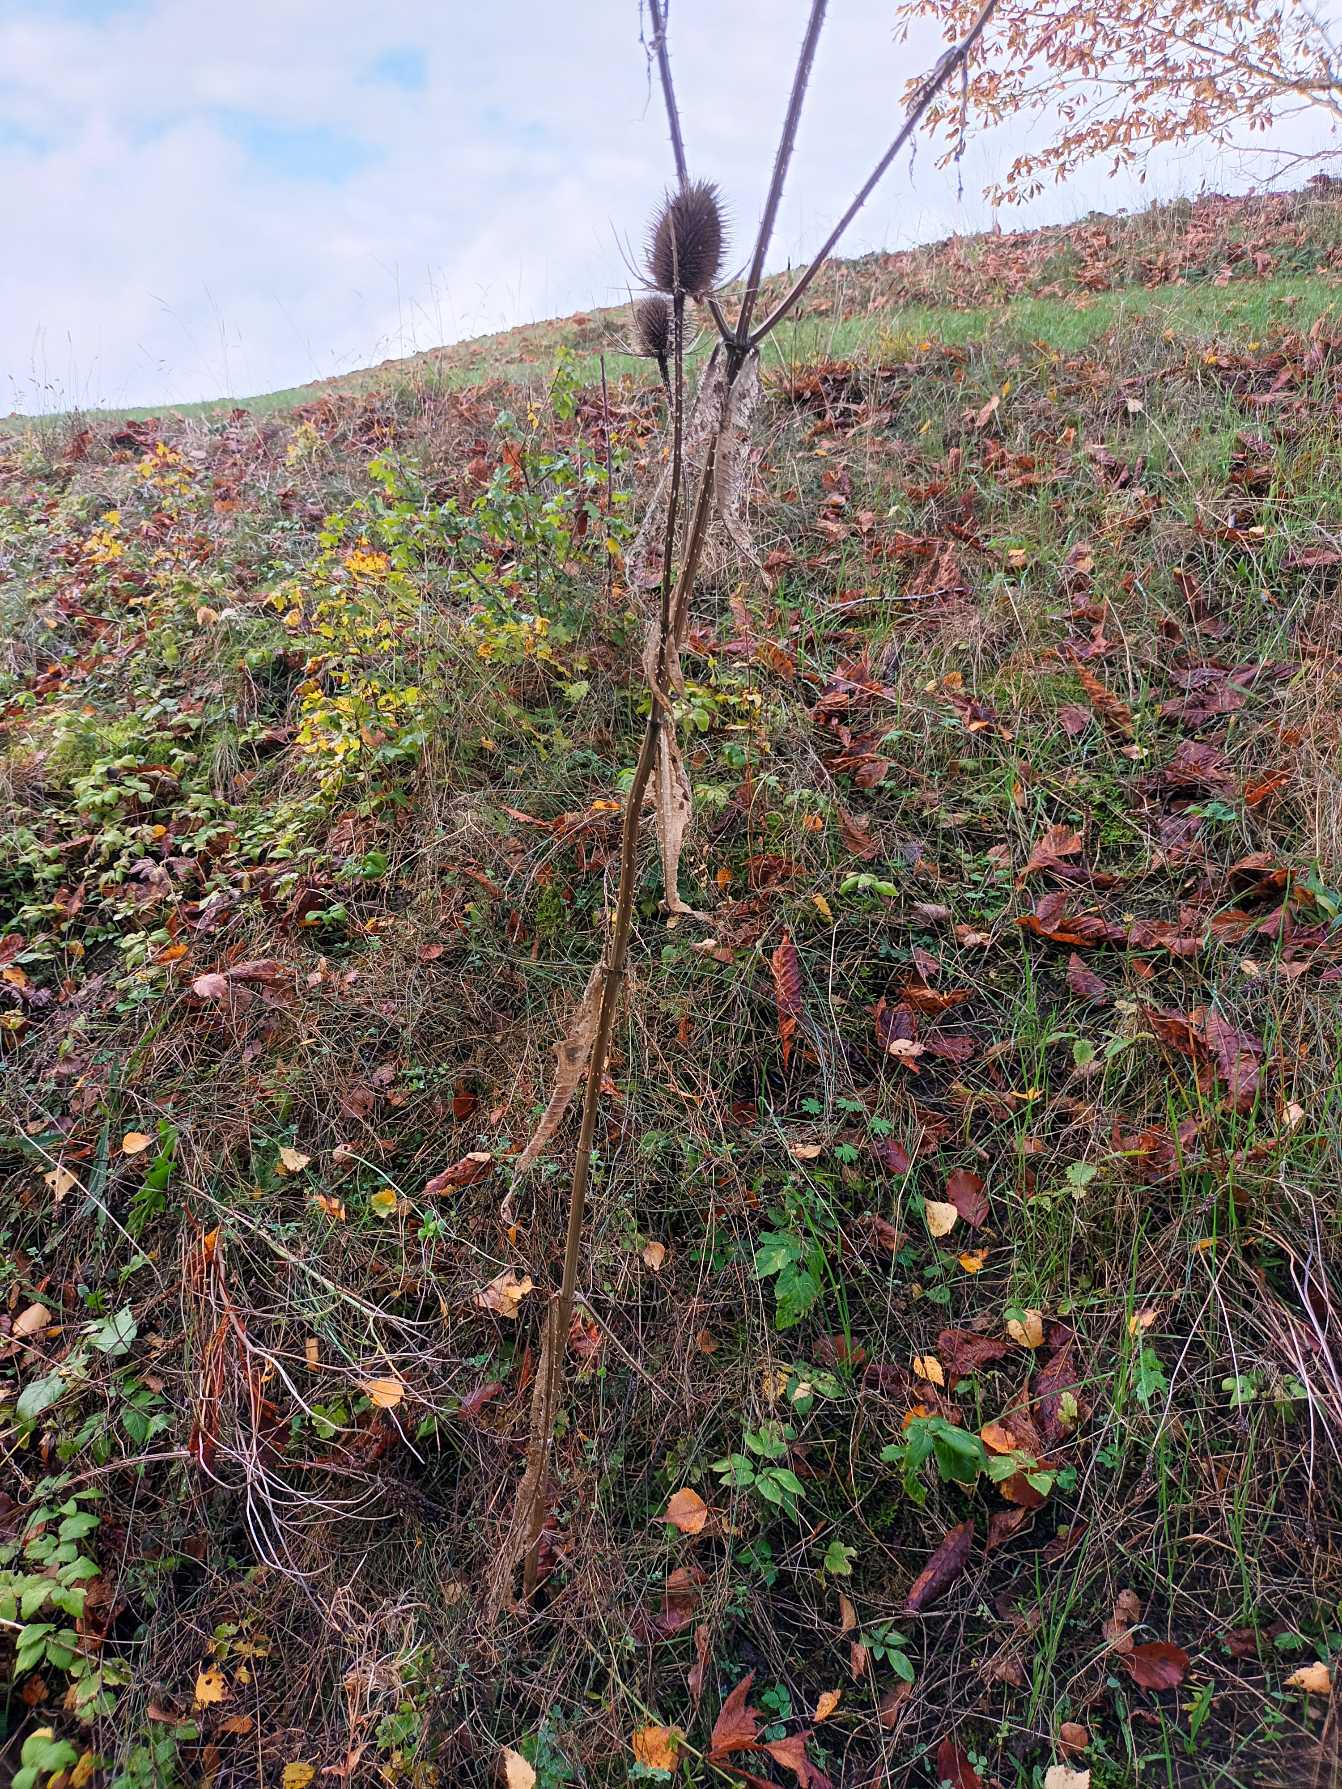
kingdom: Plantae
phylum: Tracheophyta
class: Magnoliopsida
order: Dipsacales
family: Caprifoliaceae
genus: Dipsacus
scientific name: Dipsacus fullonum
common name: Gærde-kartebolle
